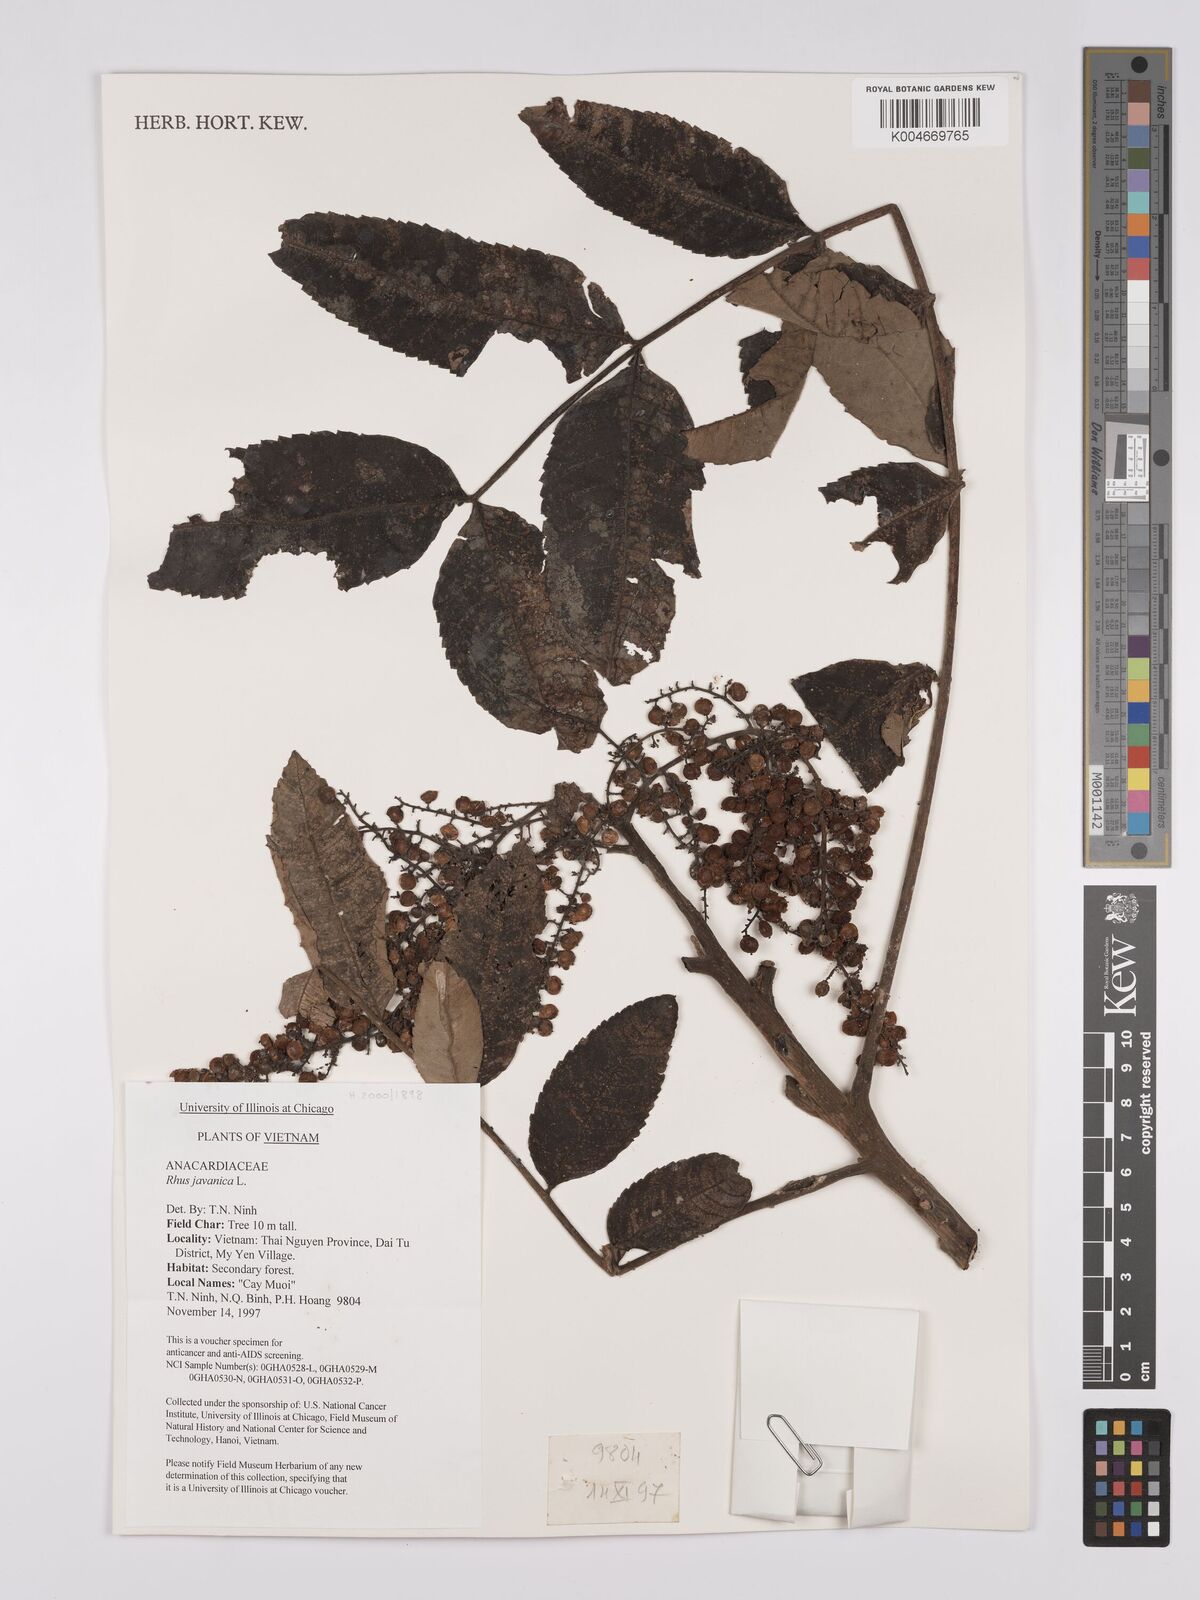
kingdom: Plantae
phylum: Tracheophyta
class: Magnoliopsida
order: Sapindales
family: Anacardiaceae
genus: Rhus
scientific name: Rhus chinensis
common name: Chinese gall
